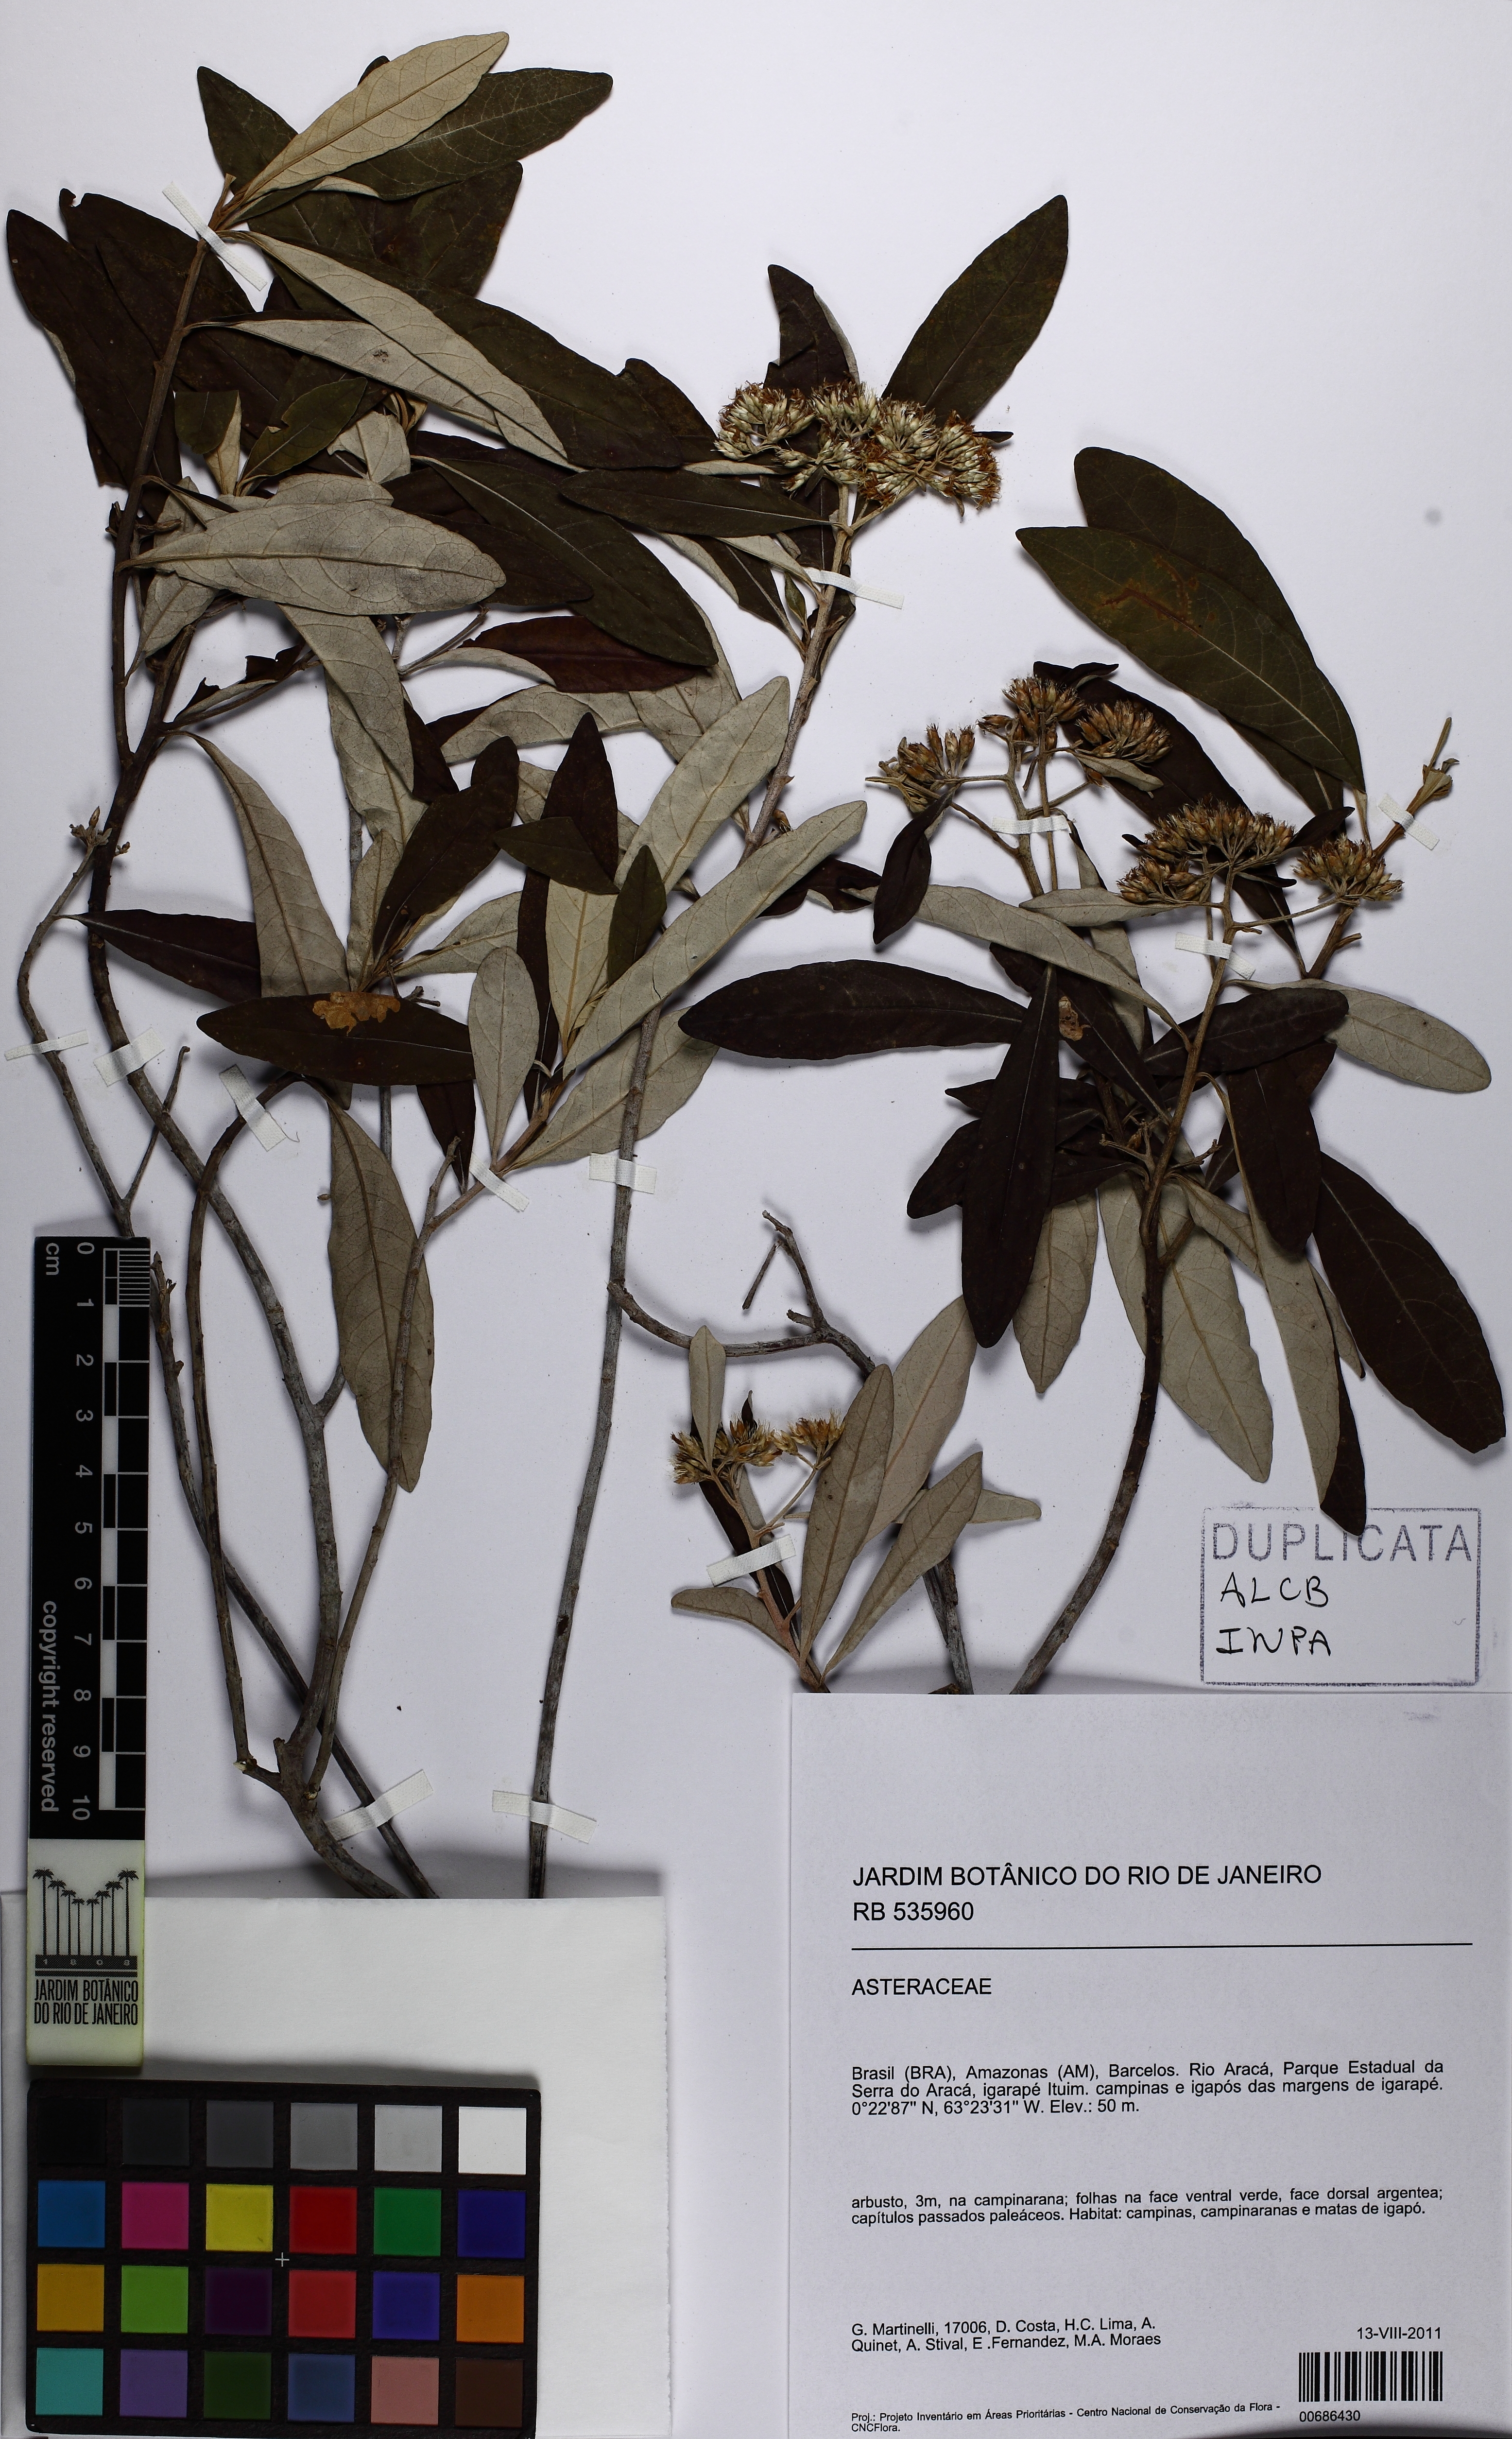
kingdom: Plantae
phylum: Tracheophyta
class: Magnoliopsida
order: Asterales
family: Asteraceae
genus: Eremanthus
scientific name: Eremanthus
